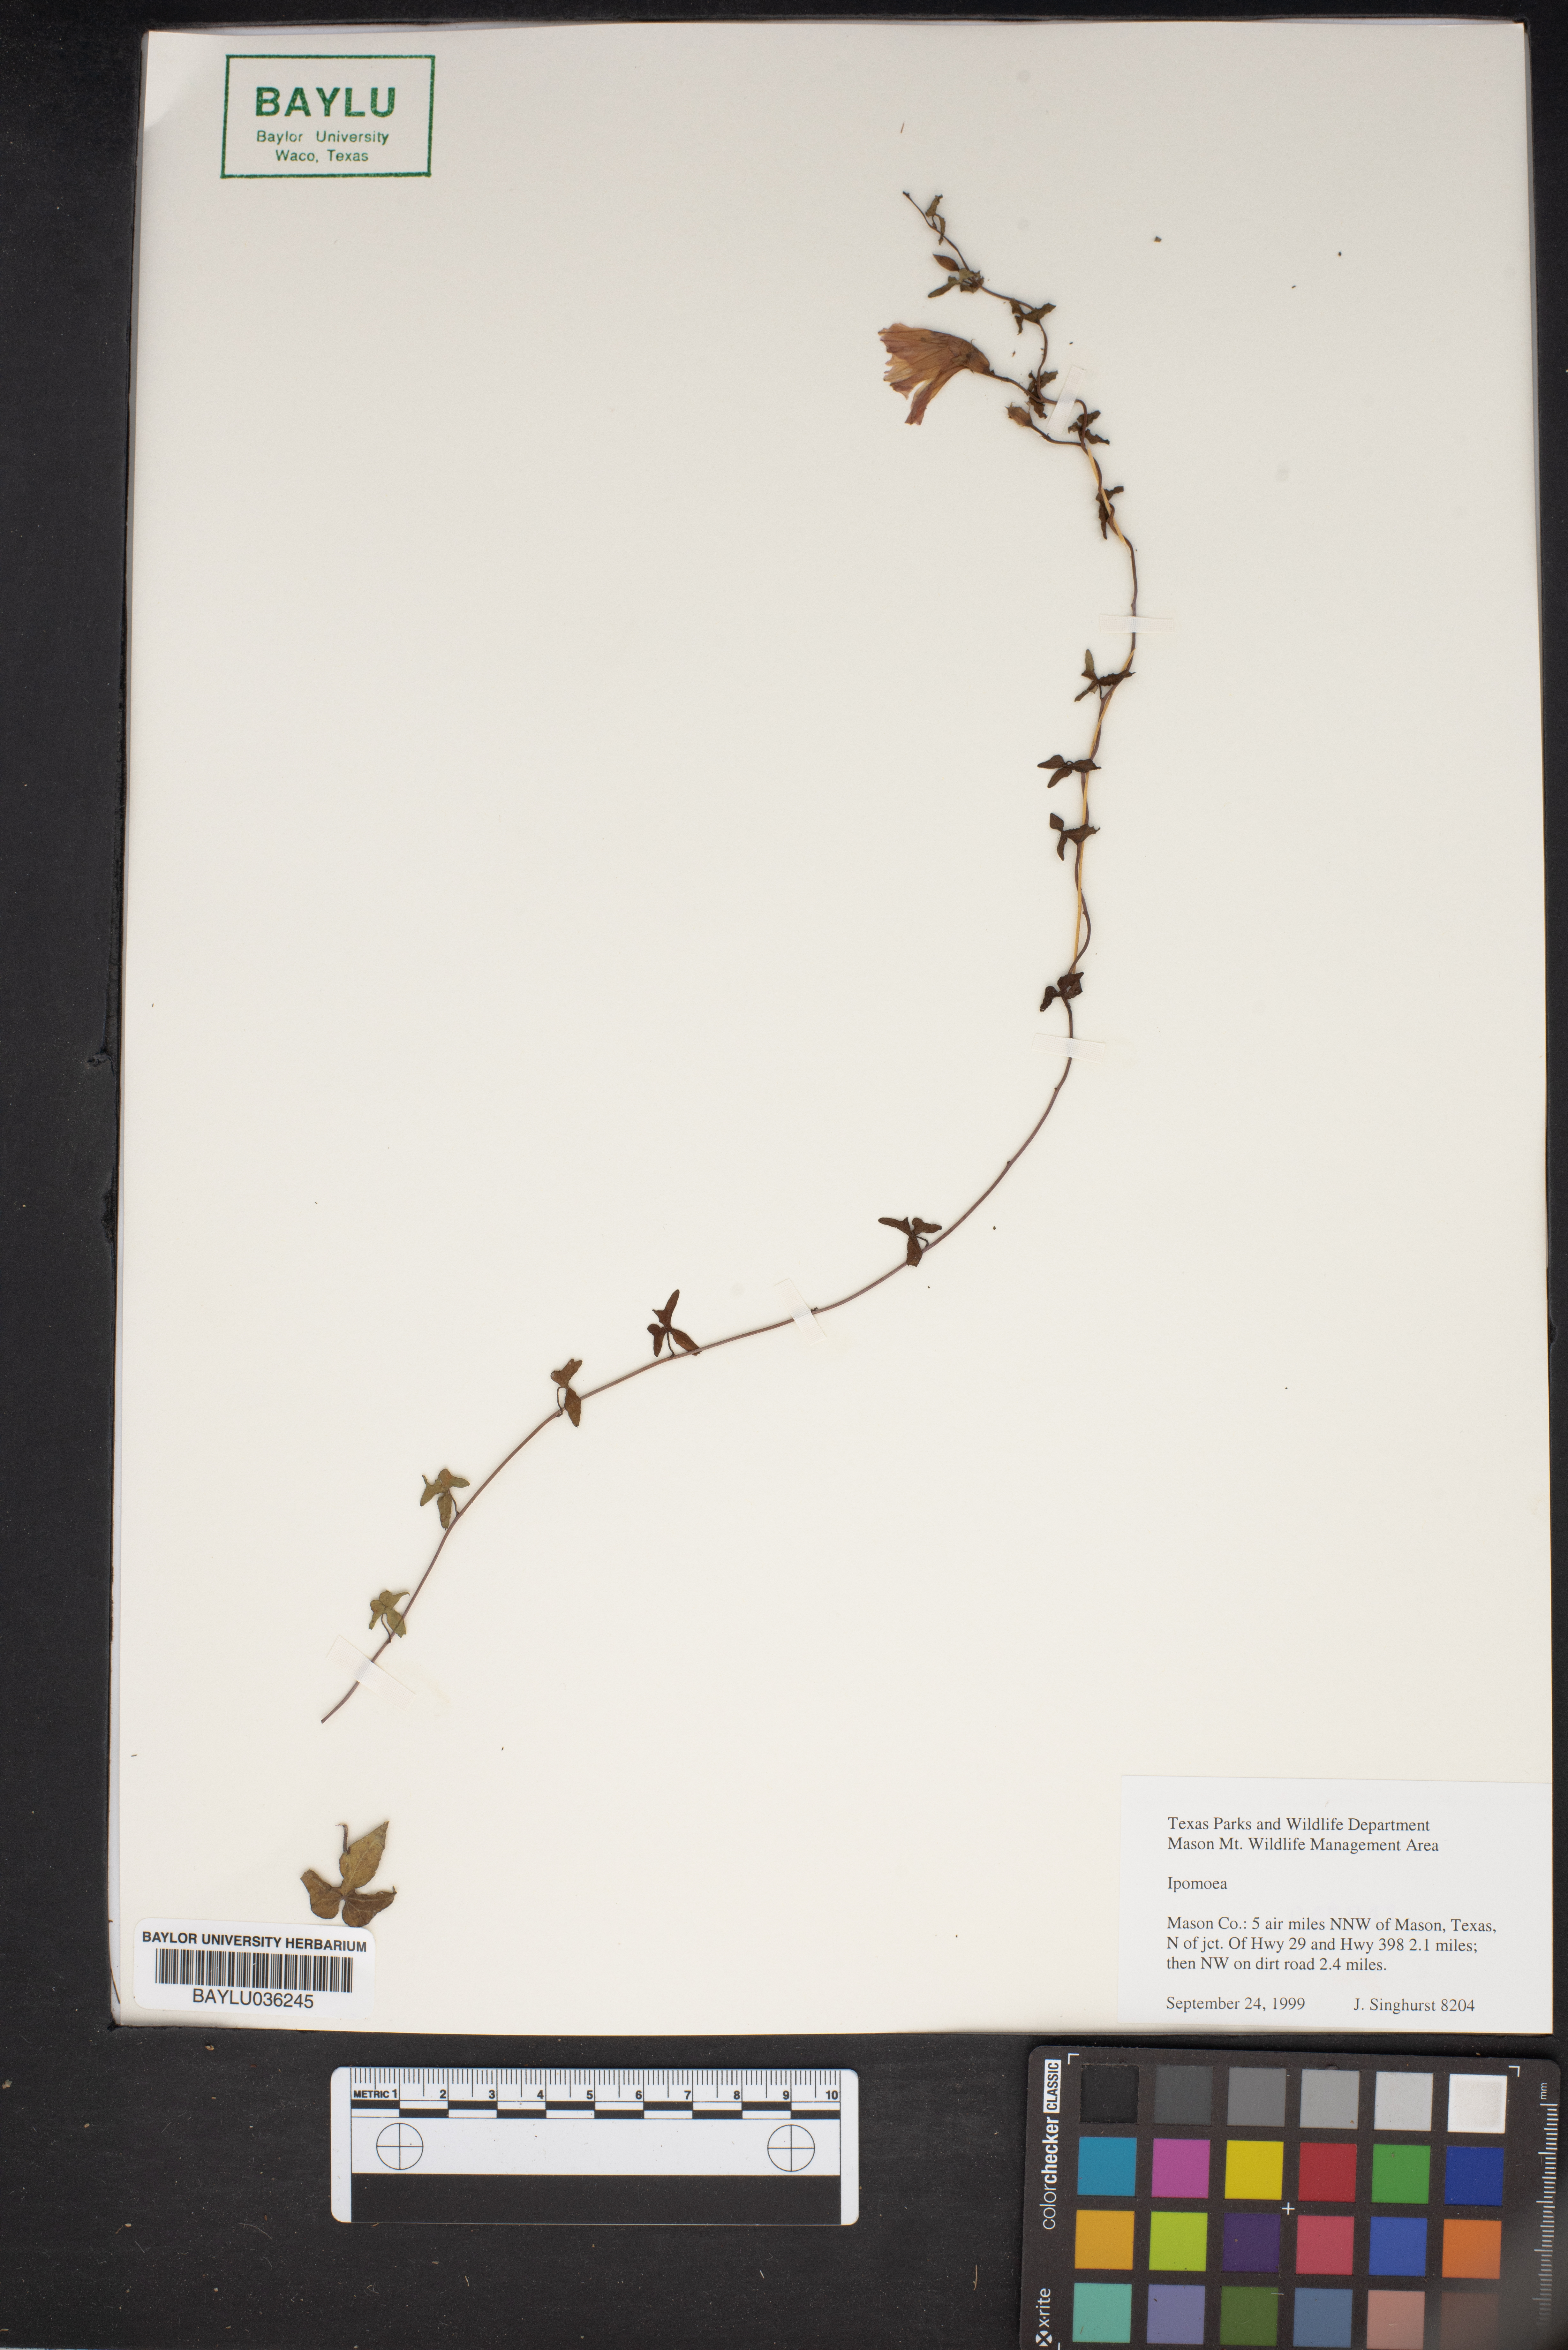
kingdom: Plantae
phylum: Tracheophyta
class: Magnoliopsida
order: Solanales
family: Convolvulaceae
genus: Ipomoea
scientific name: Ipomoea
